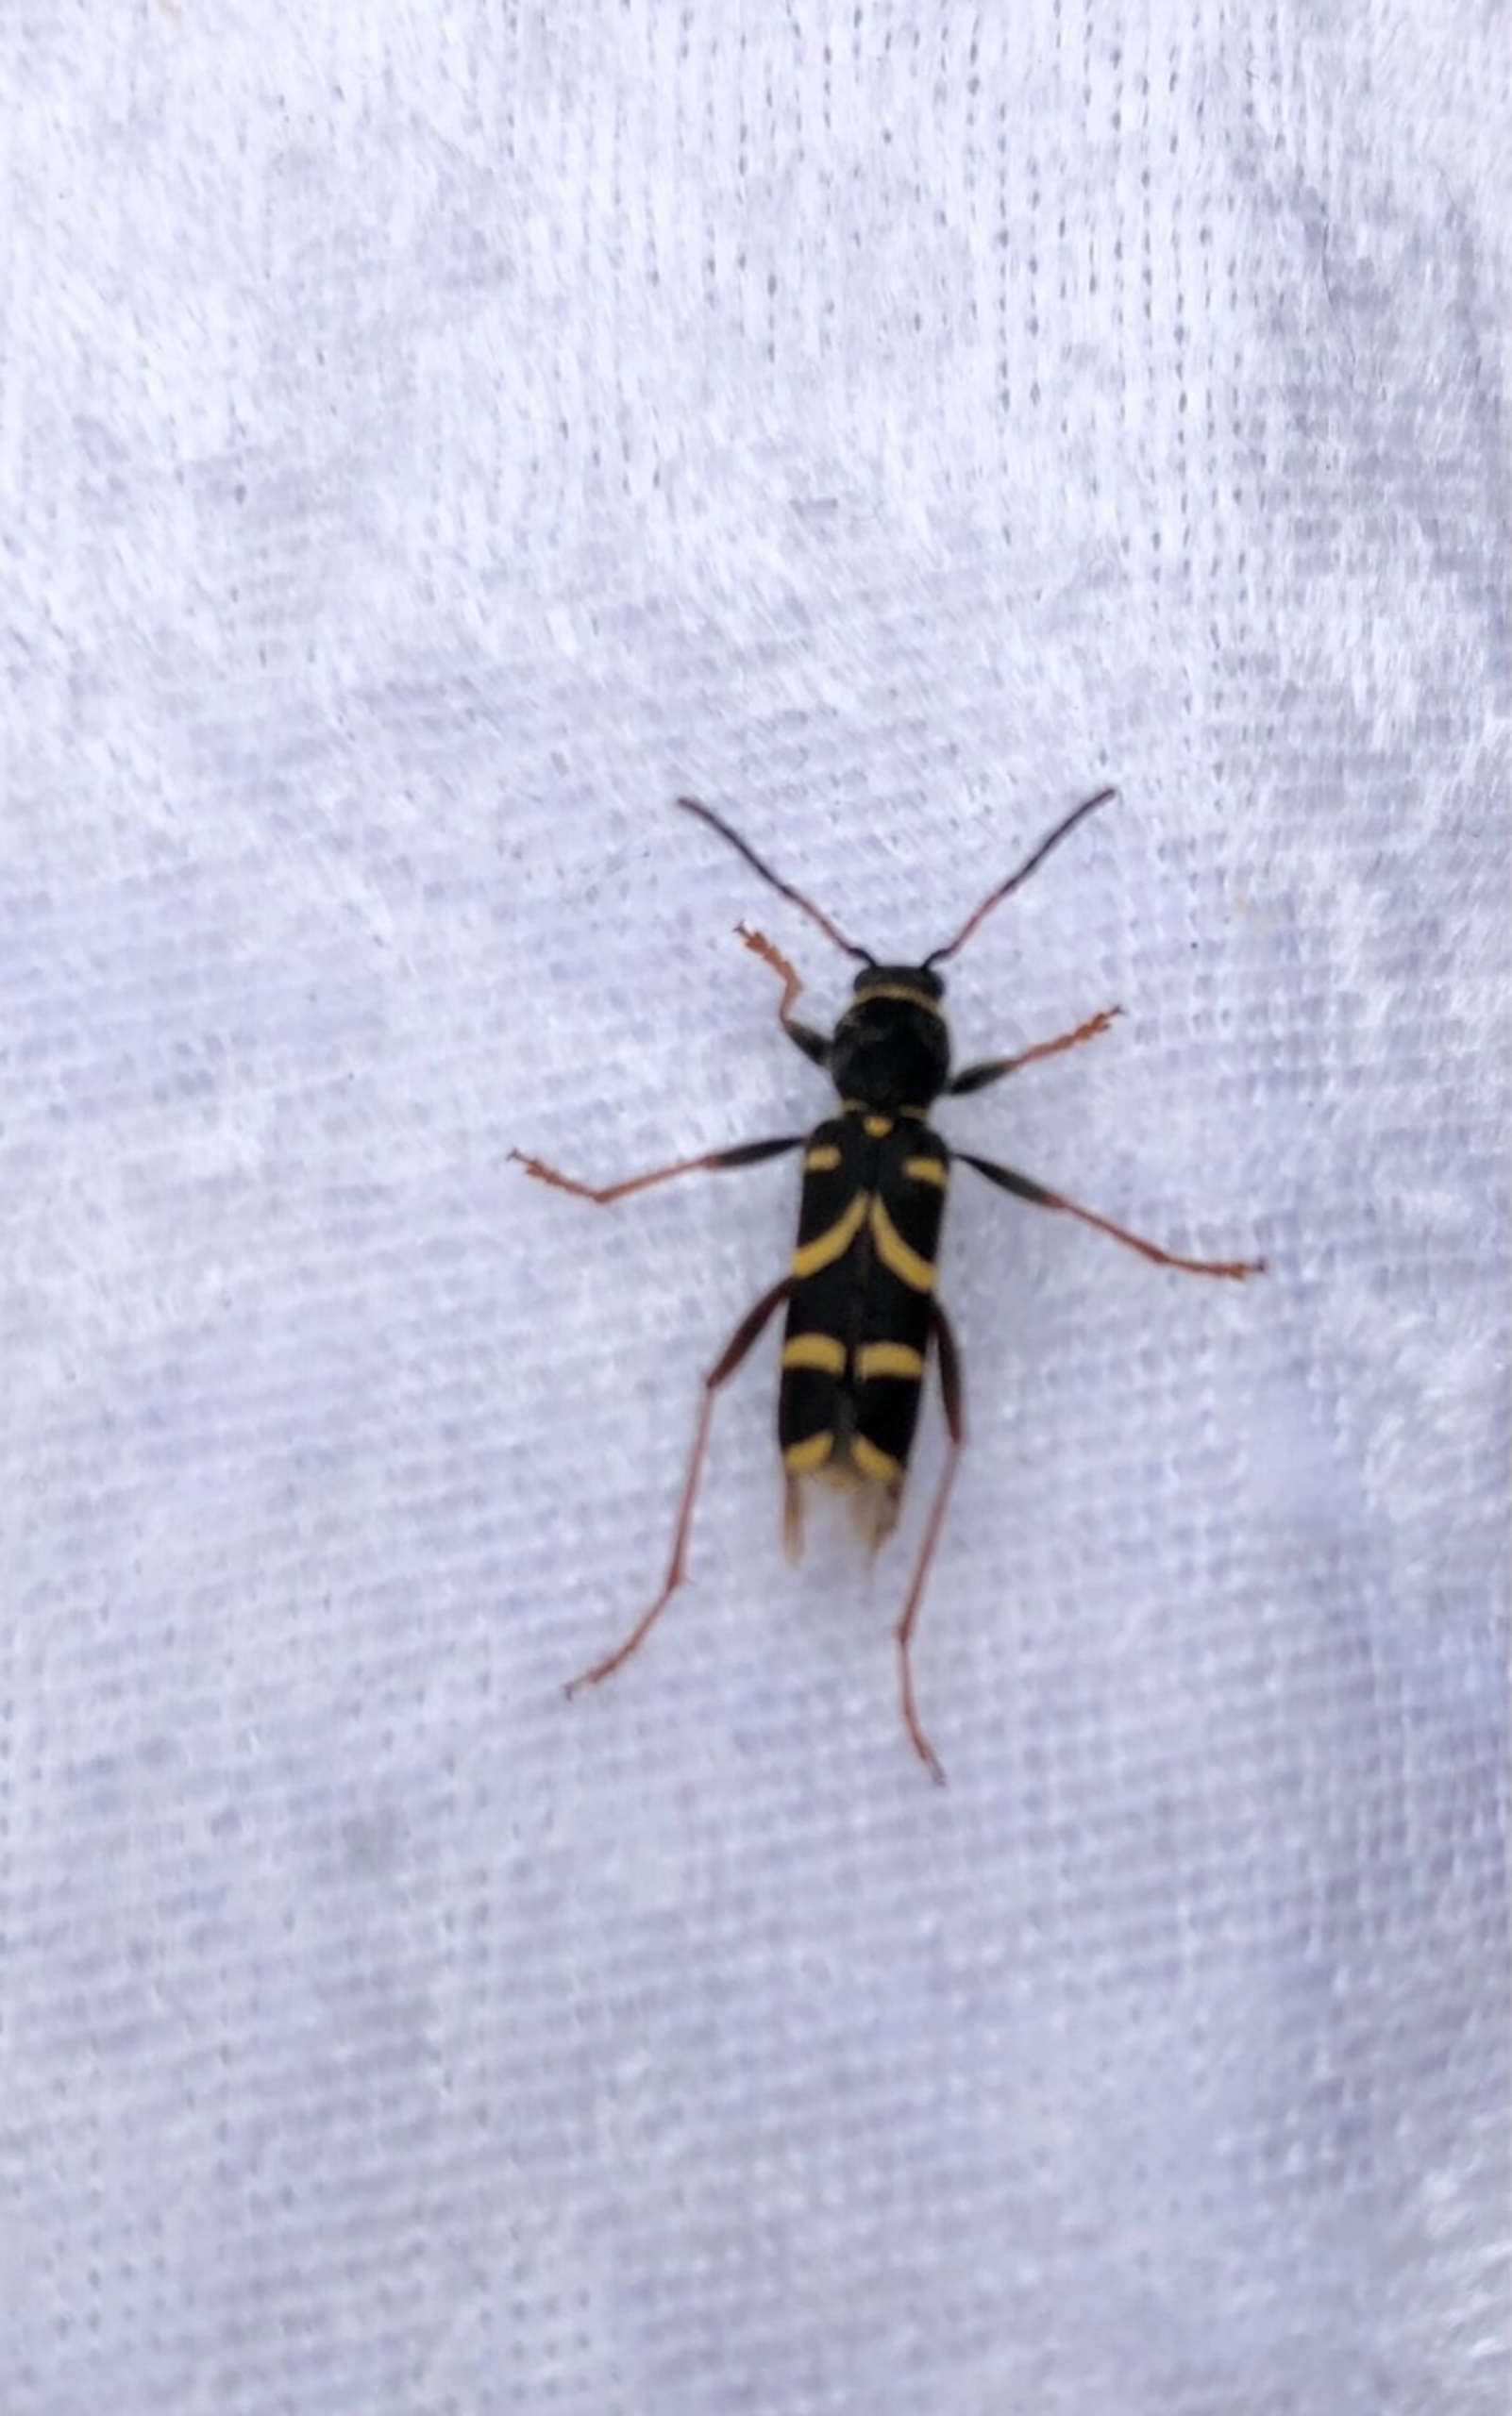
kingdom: Animalia
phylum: Arthropoda
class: Insecta
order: Coleoptera
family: Cerambycidae
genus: Clytus
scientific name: Clytus arietis
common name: Lille hvepsebuk
